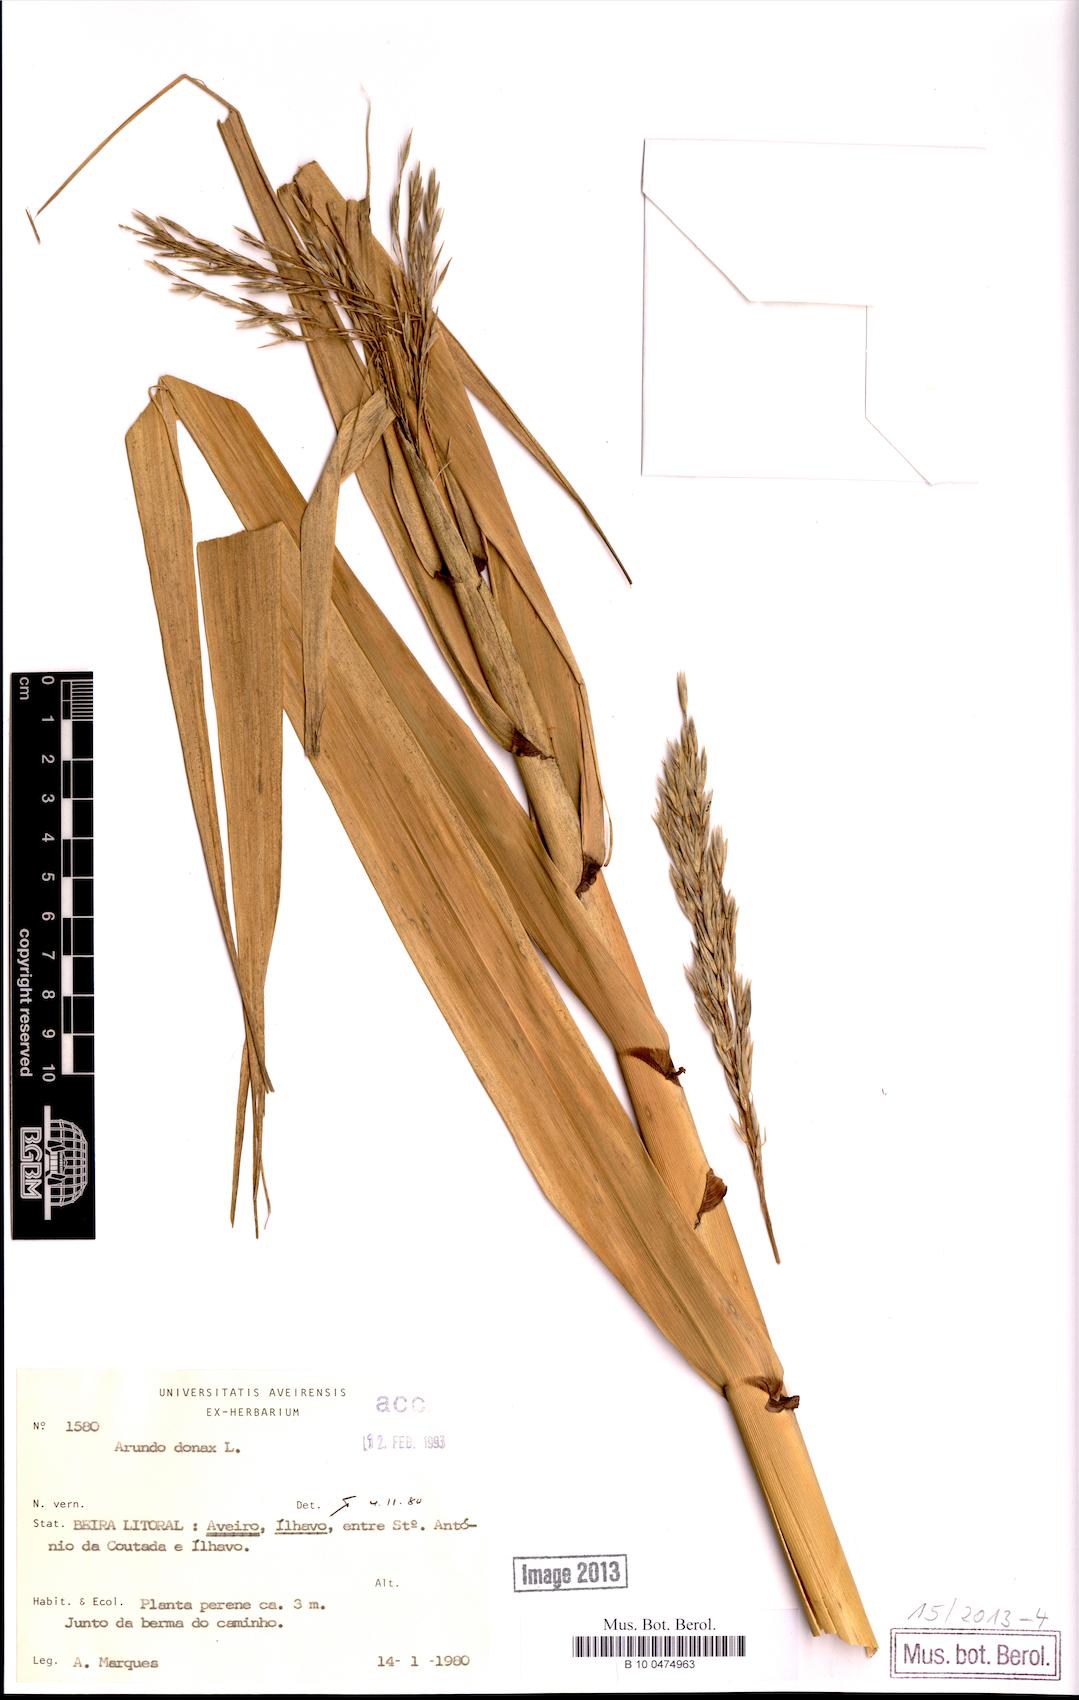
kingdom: Plantae
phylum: Tracheophyta
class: Liliopsida
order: Poales
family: Poaceae
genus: Arundo
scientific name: Arundo donax
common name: Giant reed
